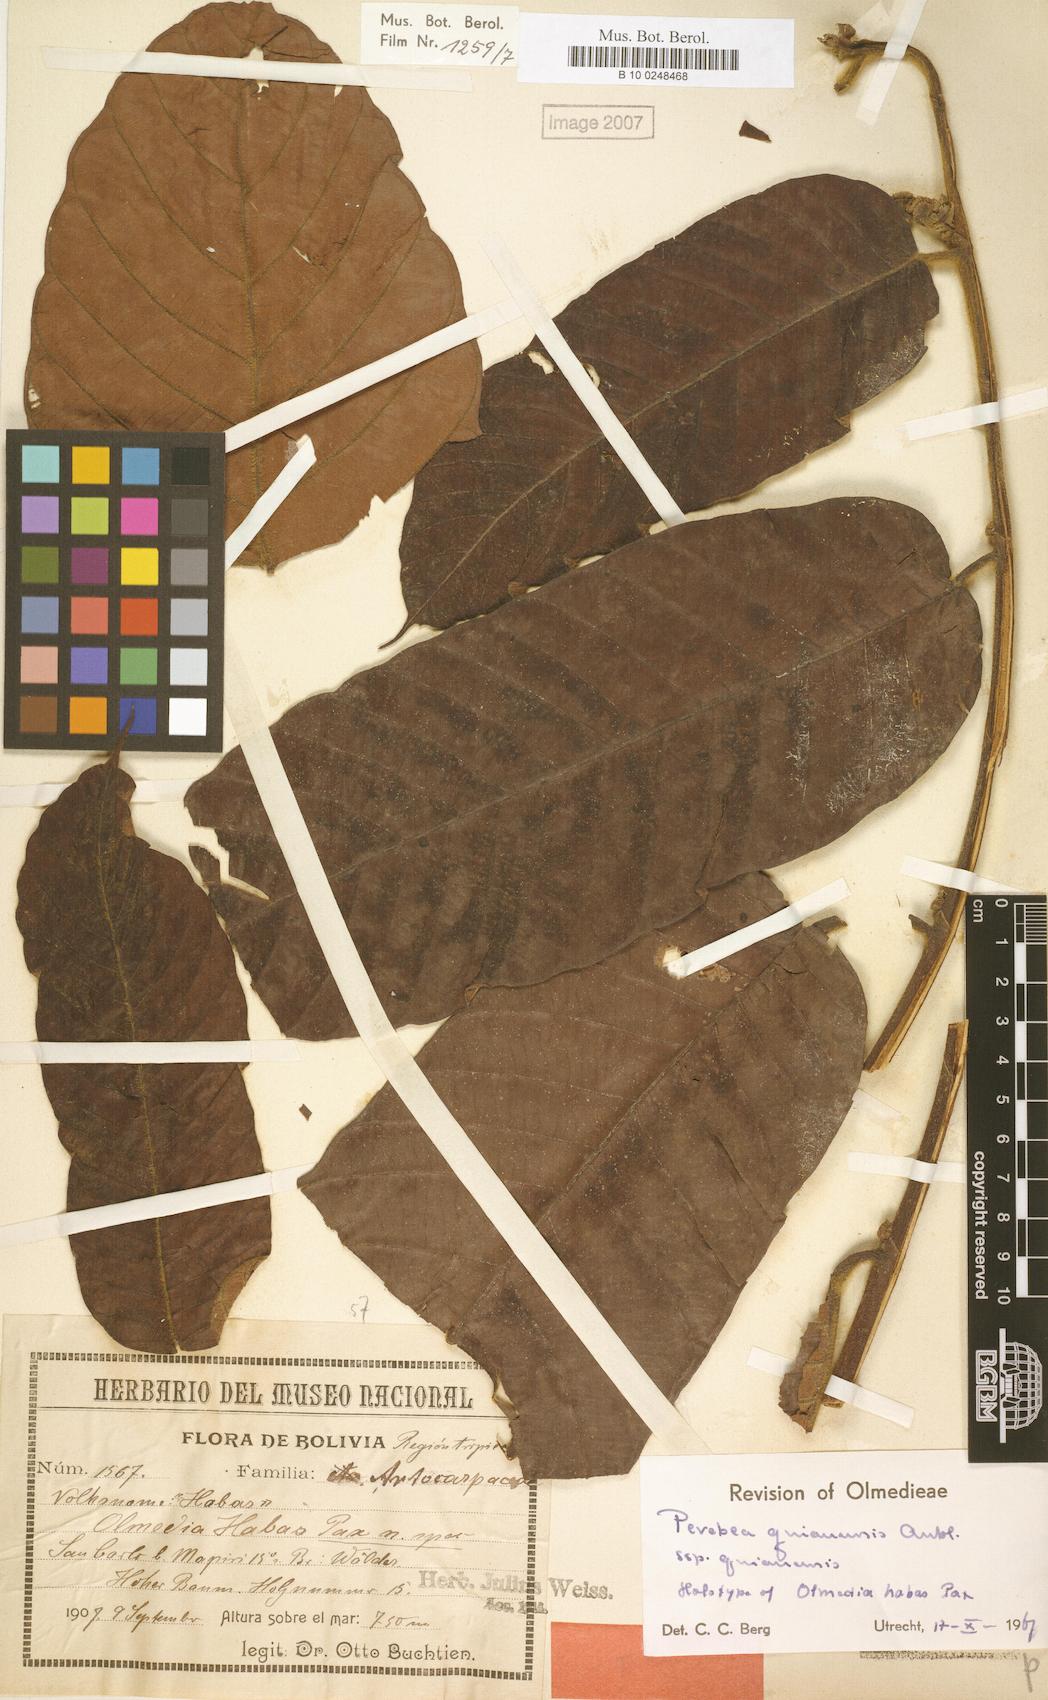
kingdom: Plantae
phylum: Tracheophyta
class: Magnoliopsida
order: Rosales
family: Moraceae
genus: Perebea
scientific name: Perebea guianensis
